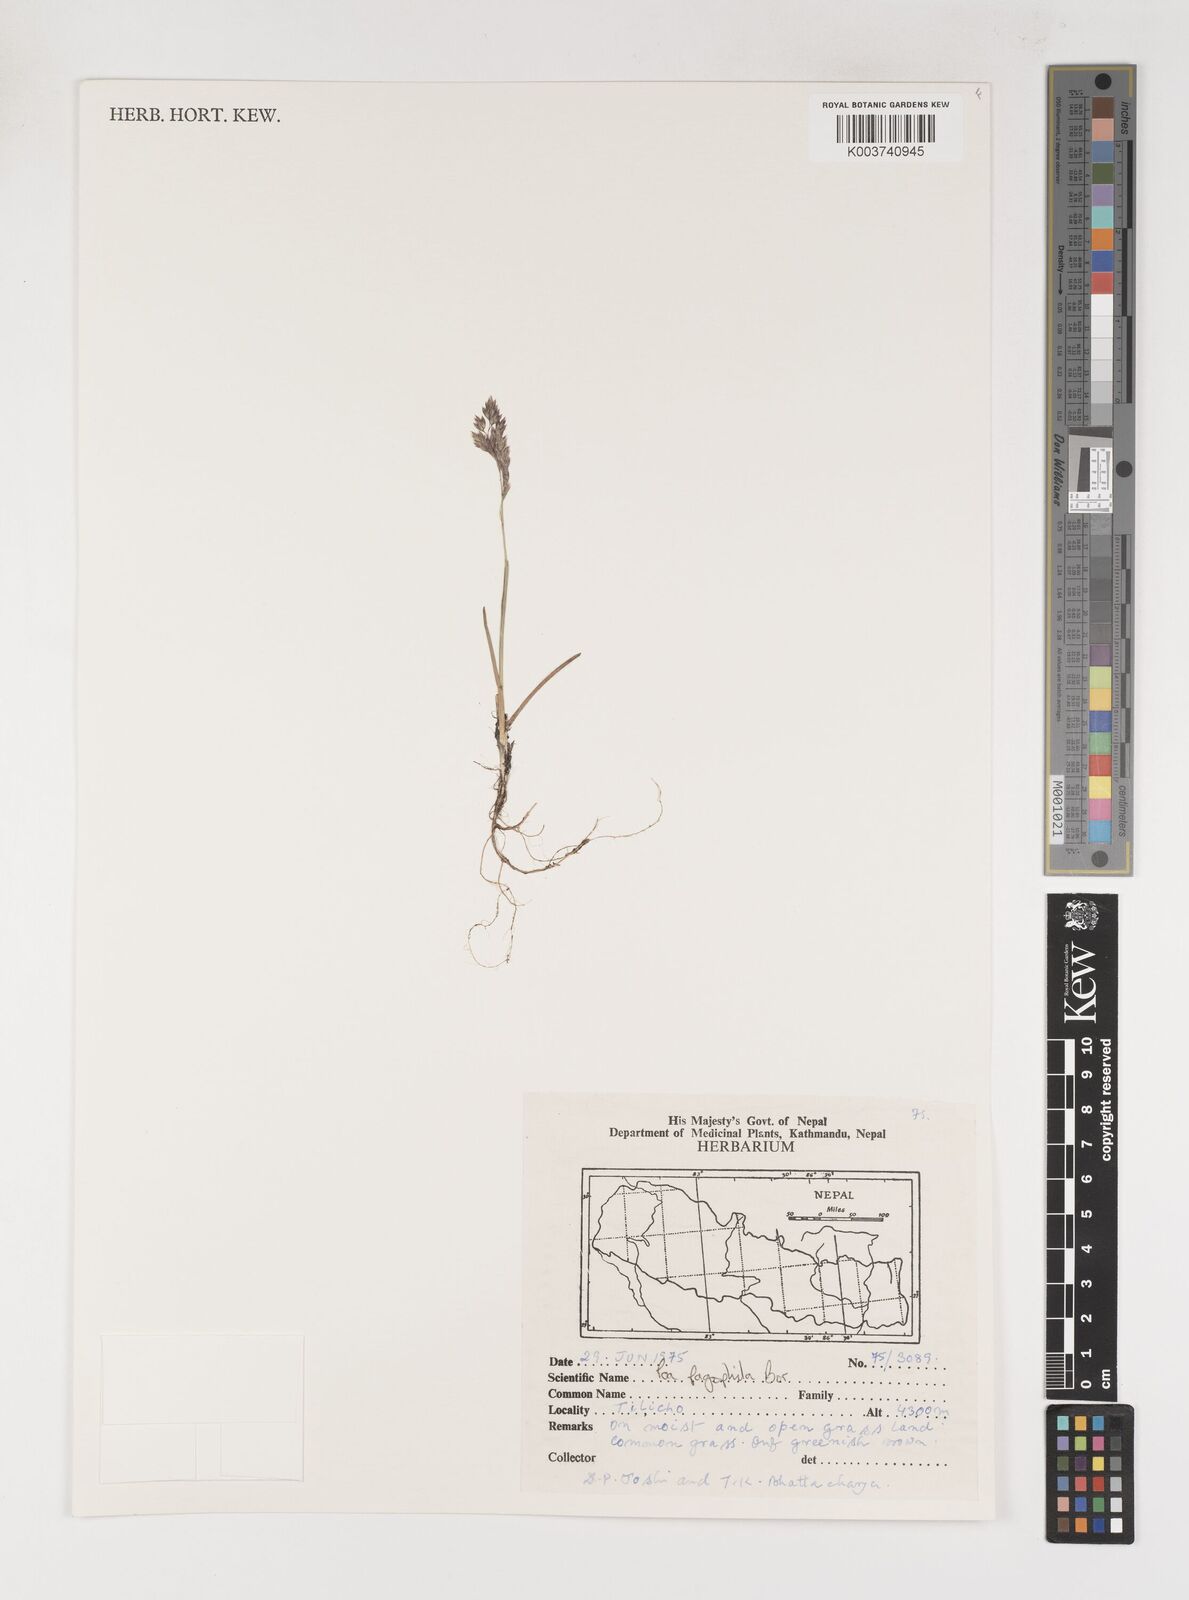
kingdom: Plantae
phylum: Tracheophyta
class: Liliopsida
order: Poales
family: Poaceae
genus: Poa
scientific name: Poa pagophila
